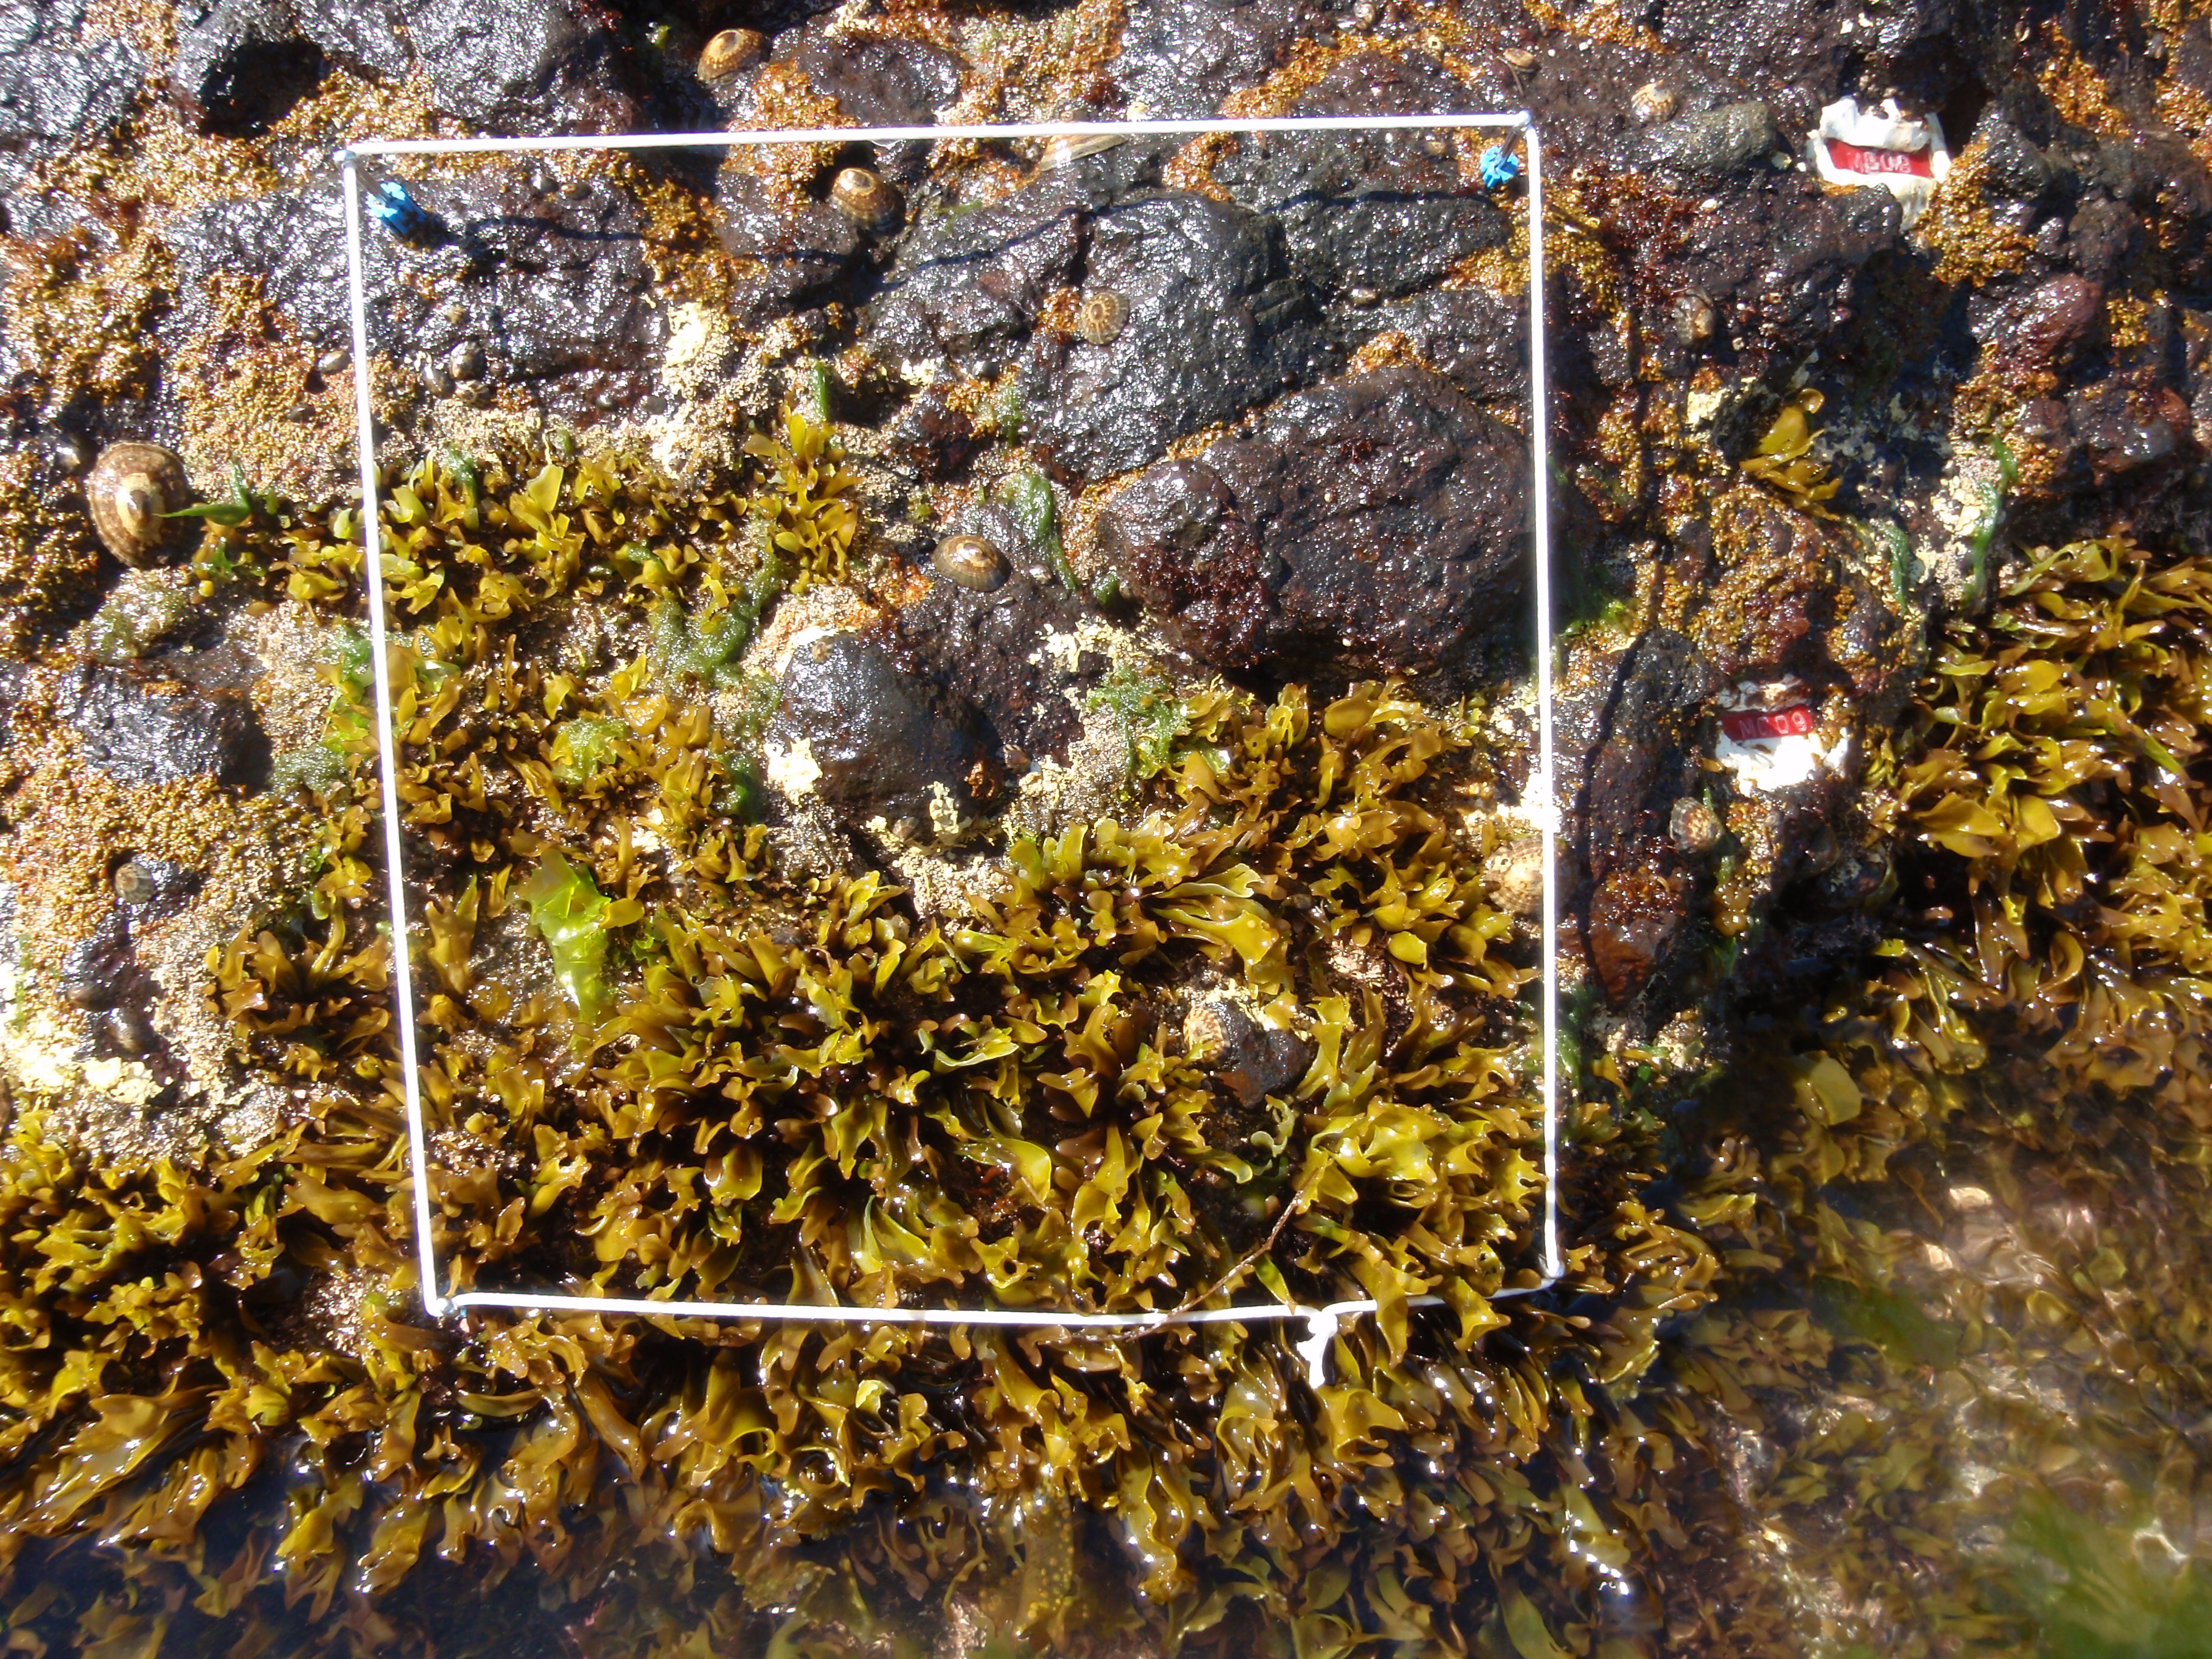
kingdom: Plantae
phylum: Rhodophyta
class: Florideophyceae
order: Corallinales
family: Corallinaceae
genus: Corallina
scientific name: Corallina pilulifera
